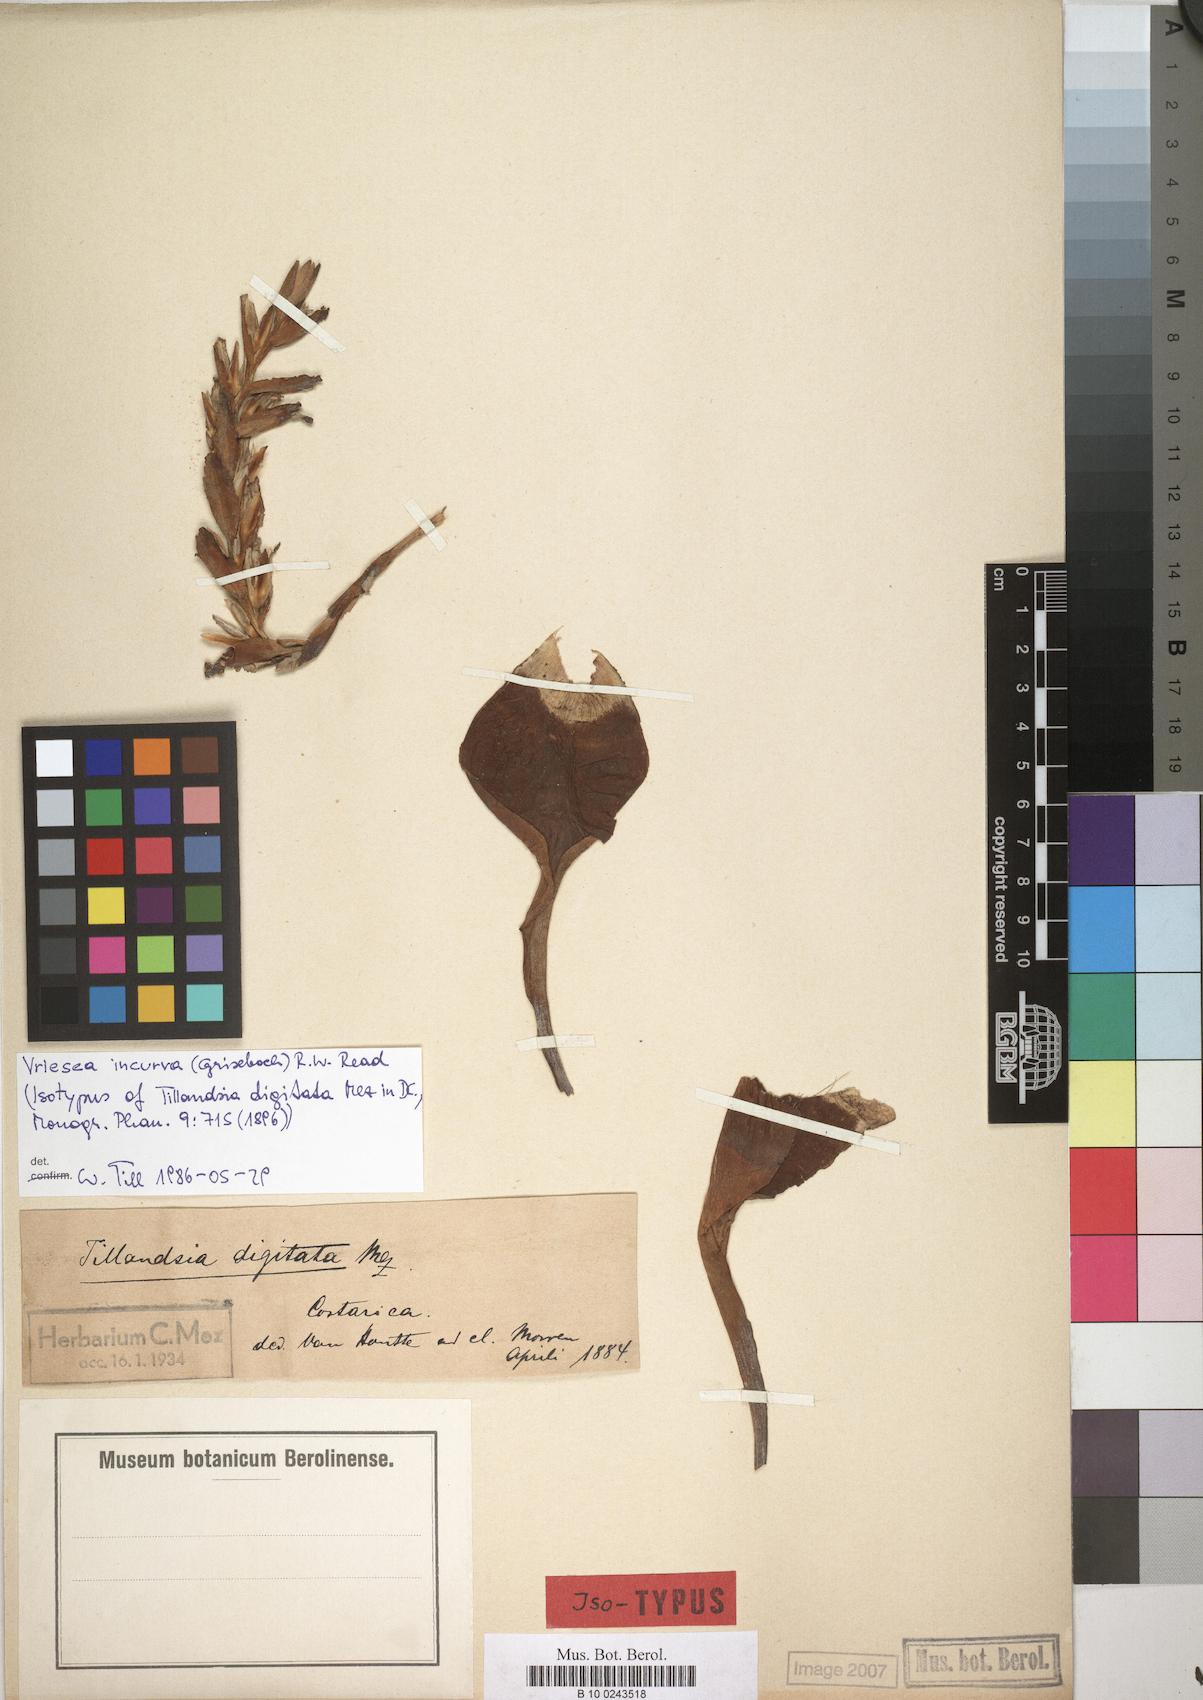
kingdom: Plantae
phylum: Tracheophyta
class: Liliopsida
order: Poales
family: Bromeliaceae
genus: Vriesea
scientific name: Vriesea incurva
